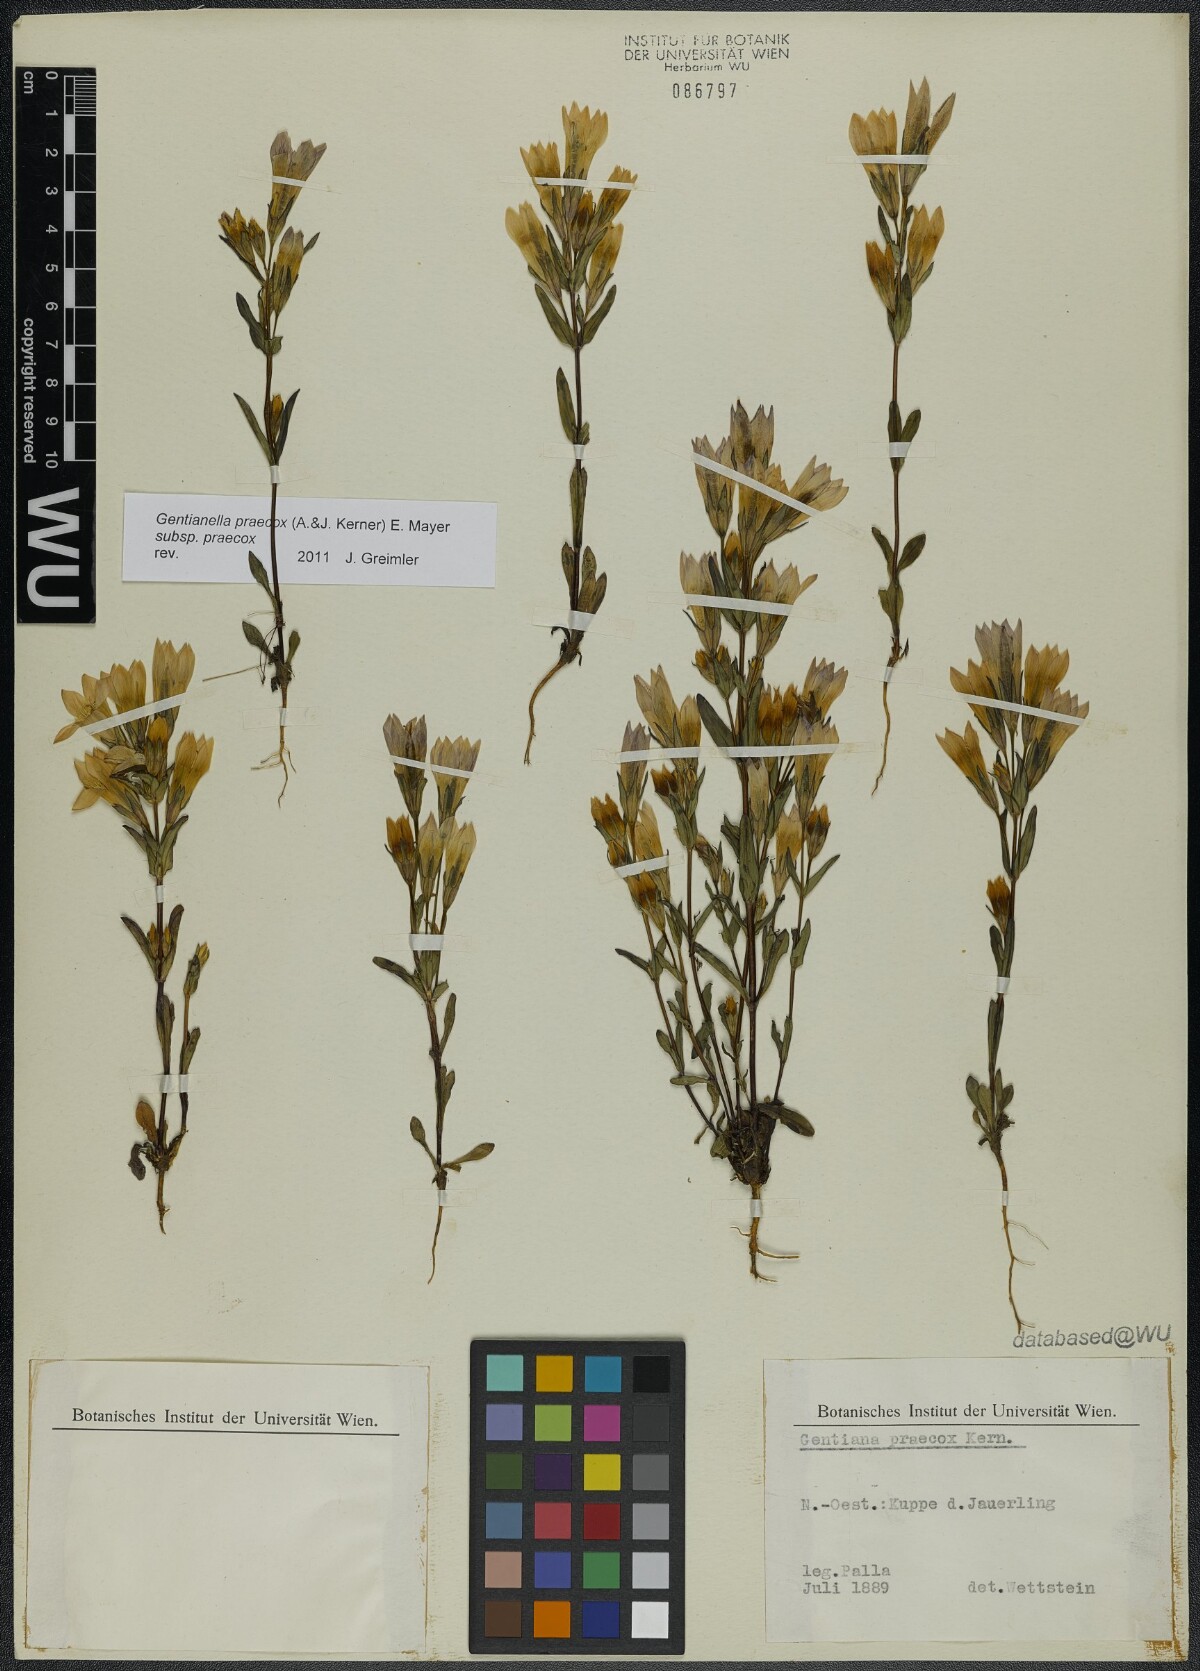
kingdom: Plantae
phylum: Tracheophyta
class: Magnoliopsida
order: Gentianales
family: Gentianaceae
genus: Gentianella
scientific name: Gentianella praecox
